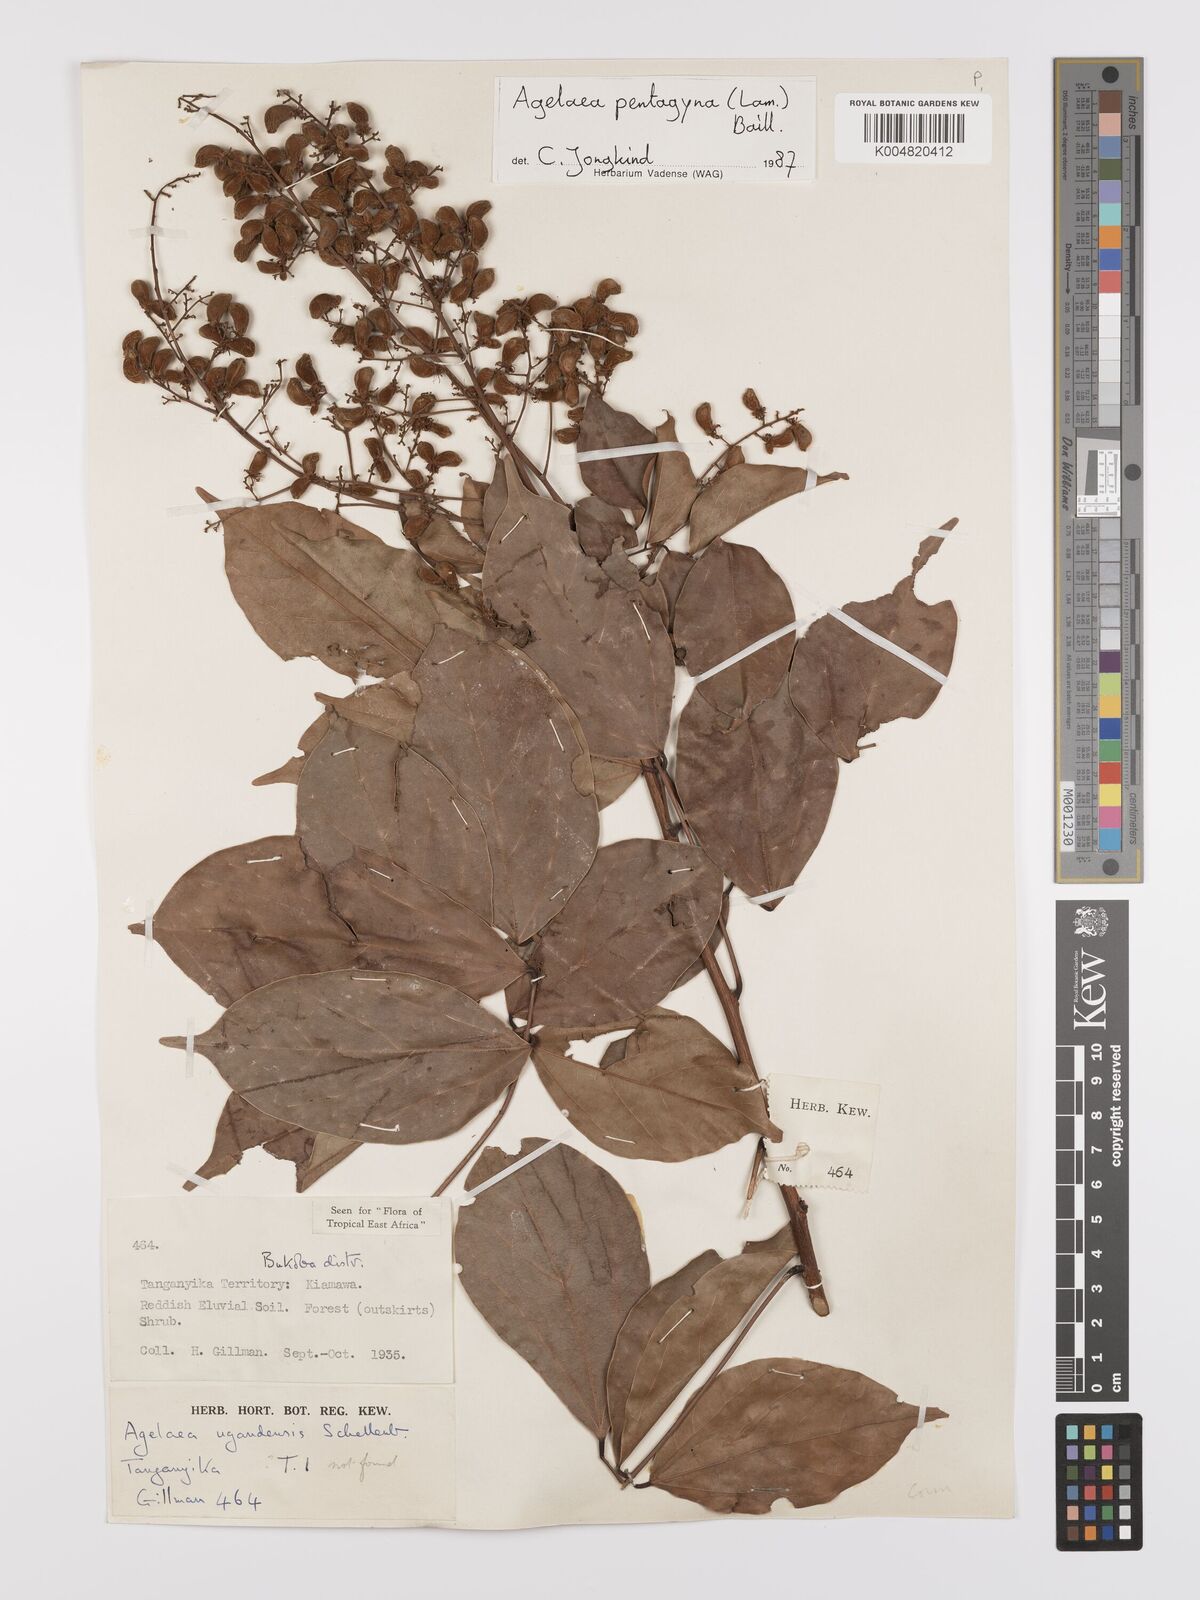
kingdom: Plantae
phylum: Tracheophyta
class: Magnoliopsida
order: Oxalidales
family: Connaraceae
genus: Agelaea
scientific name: Agelaea pentagyna
